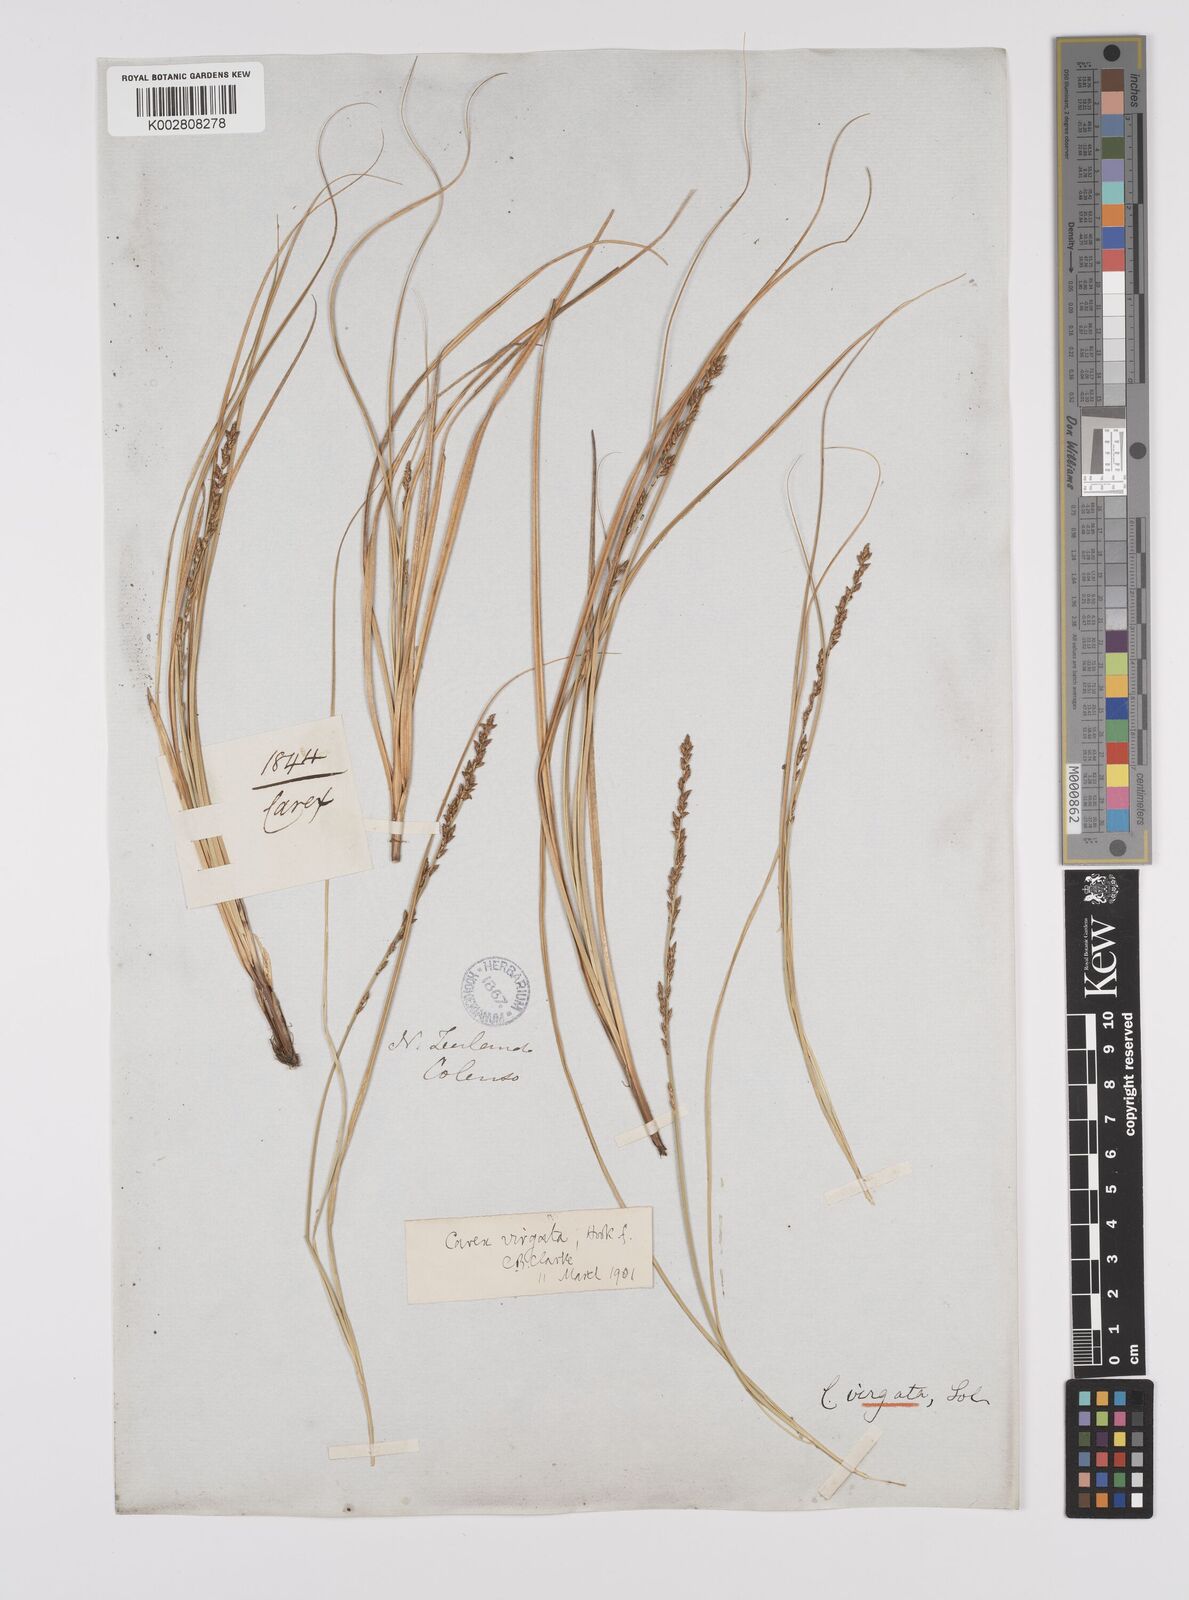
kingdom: Plantae
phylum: Tracheophyta
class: Liliopsida
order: Poales
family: Cyperaceae
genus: Carex
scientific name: Carex appressa
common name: Tussock sedge
